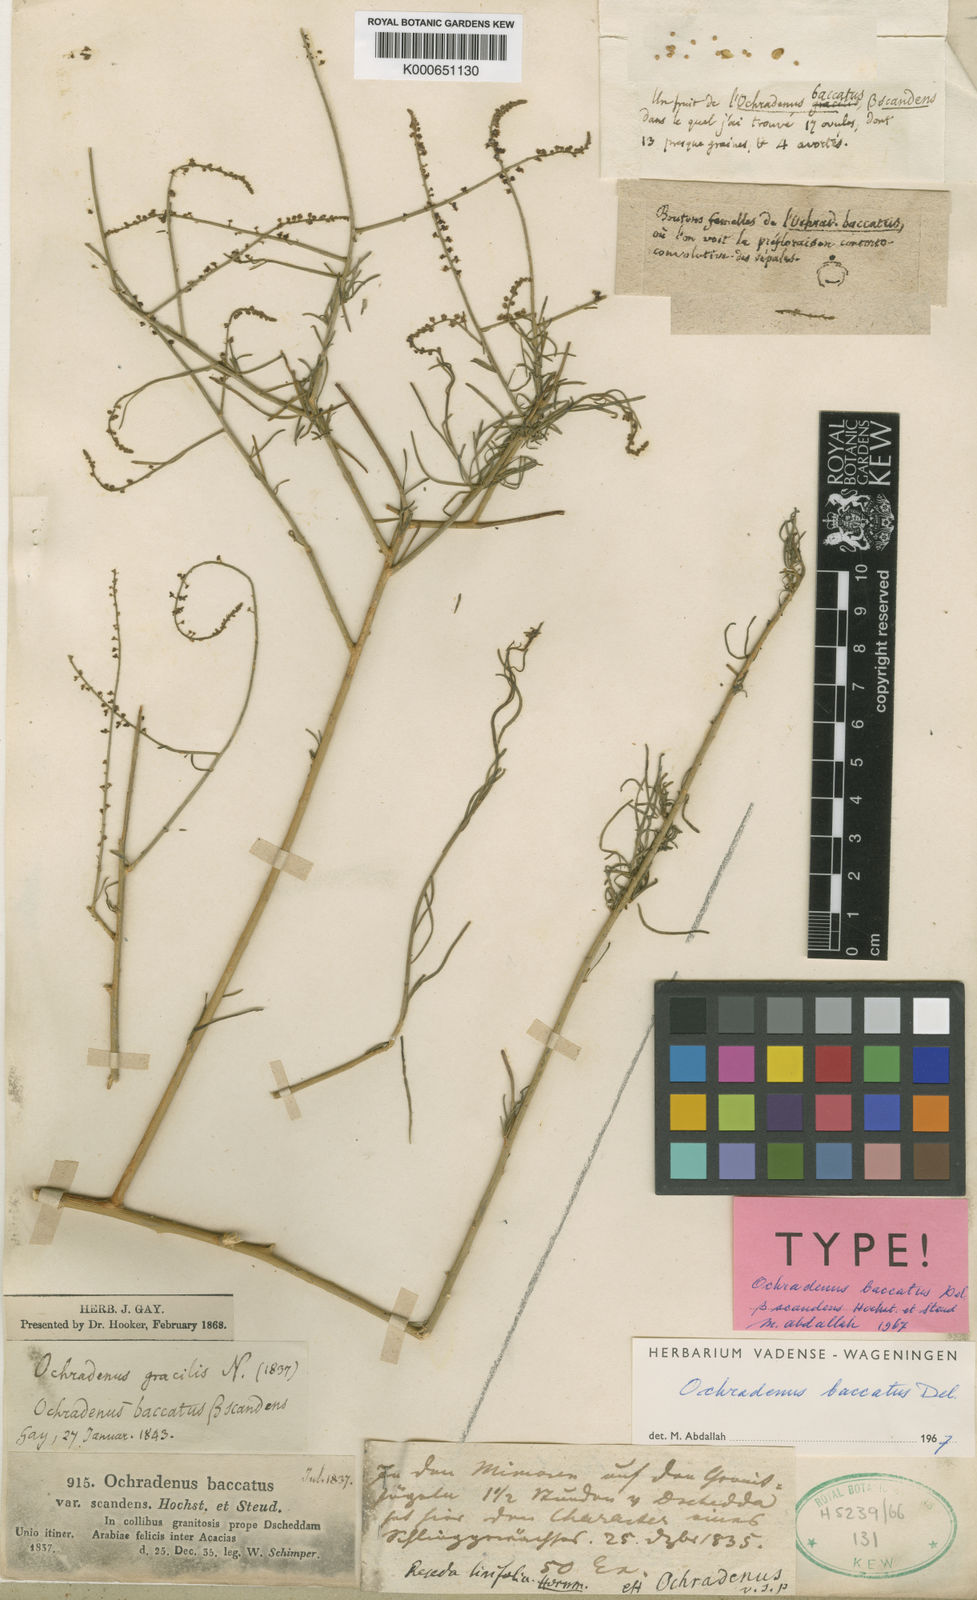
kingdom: Plantae
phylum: Tracheophyta
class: Magnoliopsida
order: Brassicales
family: Resedaceae
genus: Ochradenus
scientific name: Ochradenus baccatus
